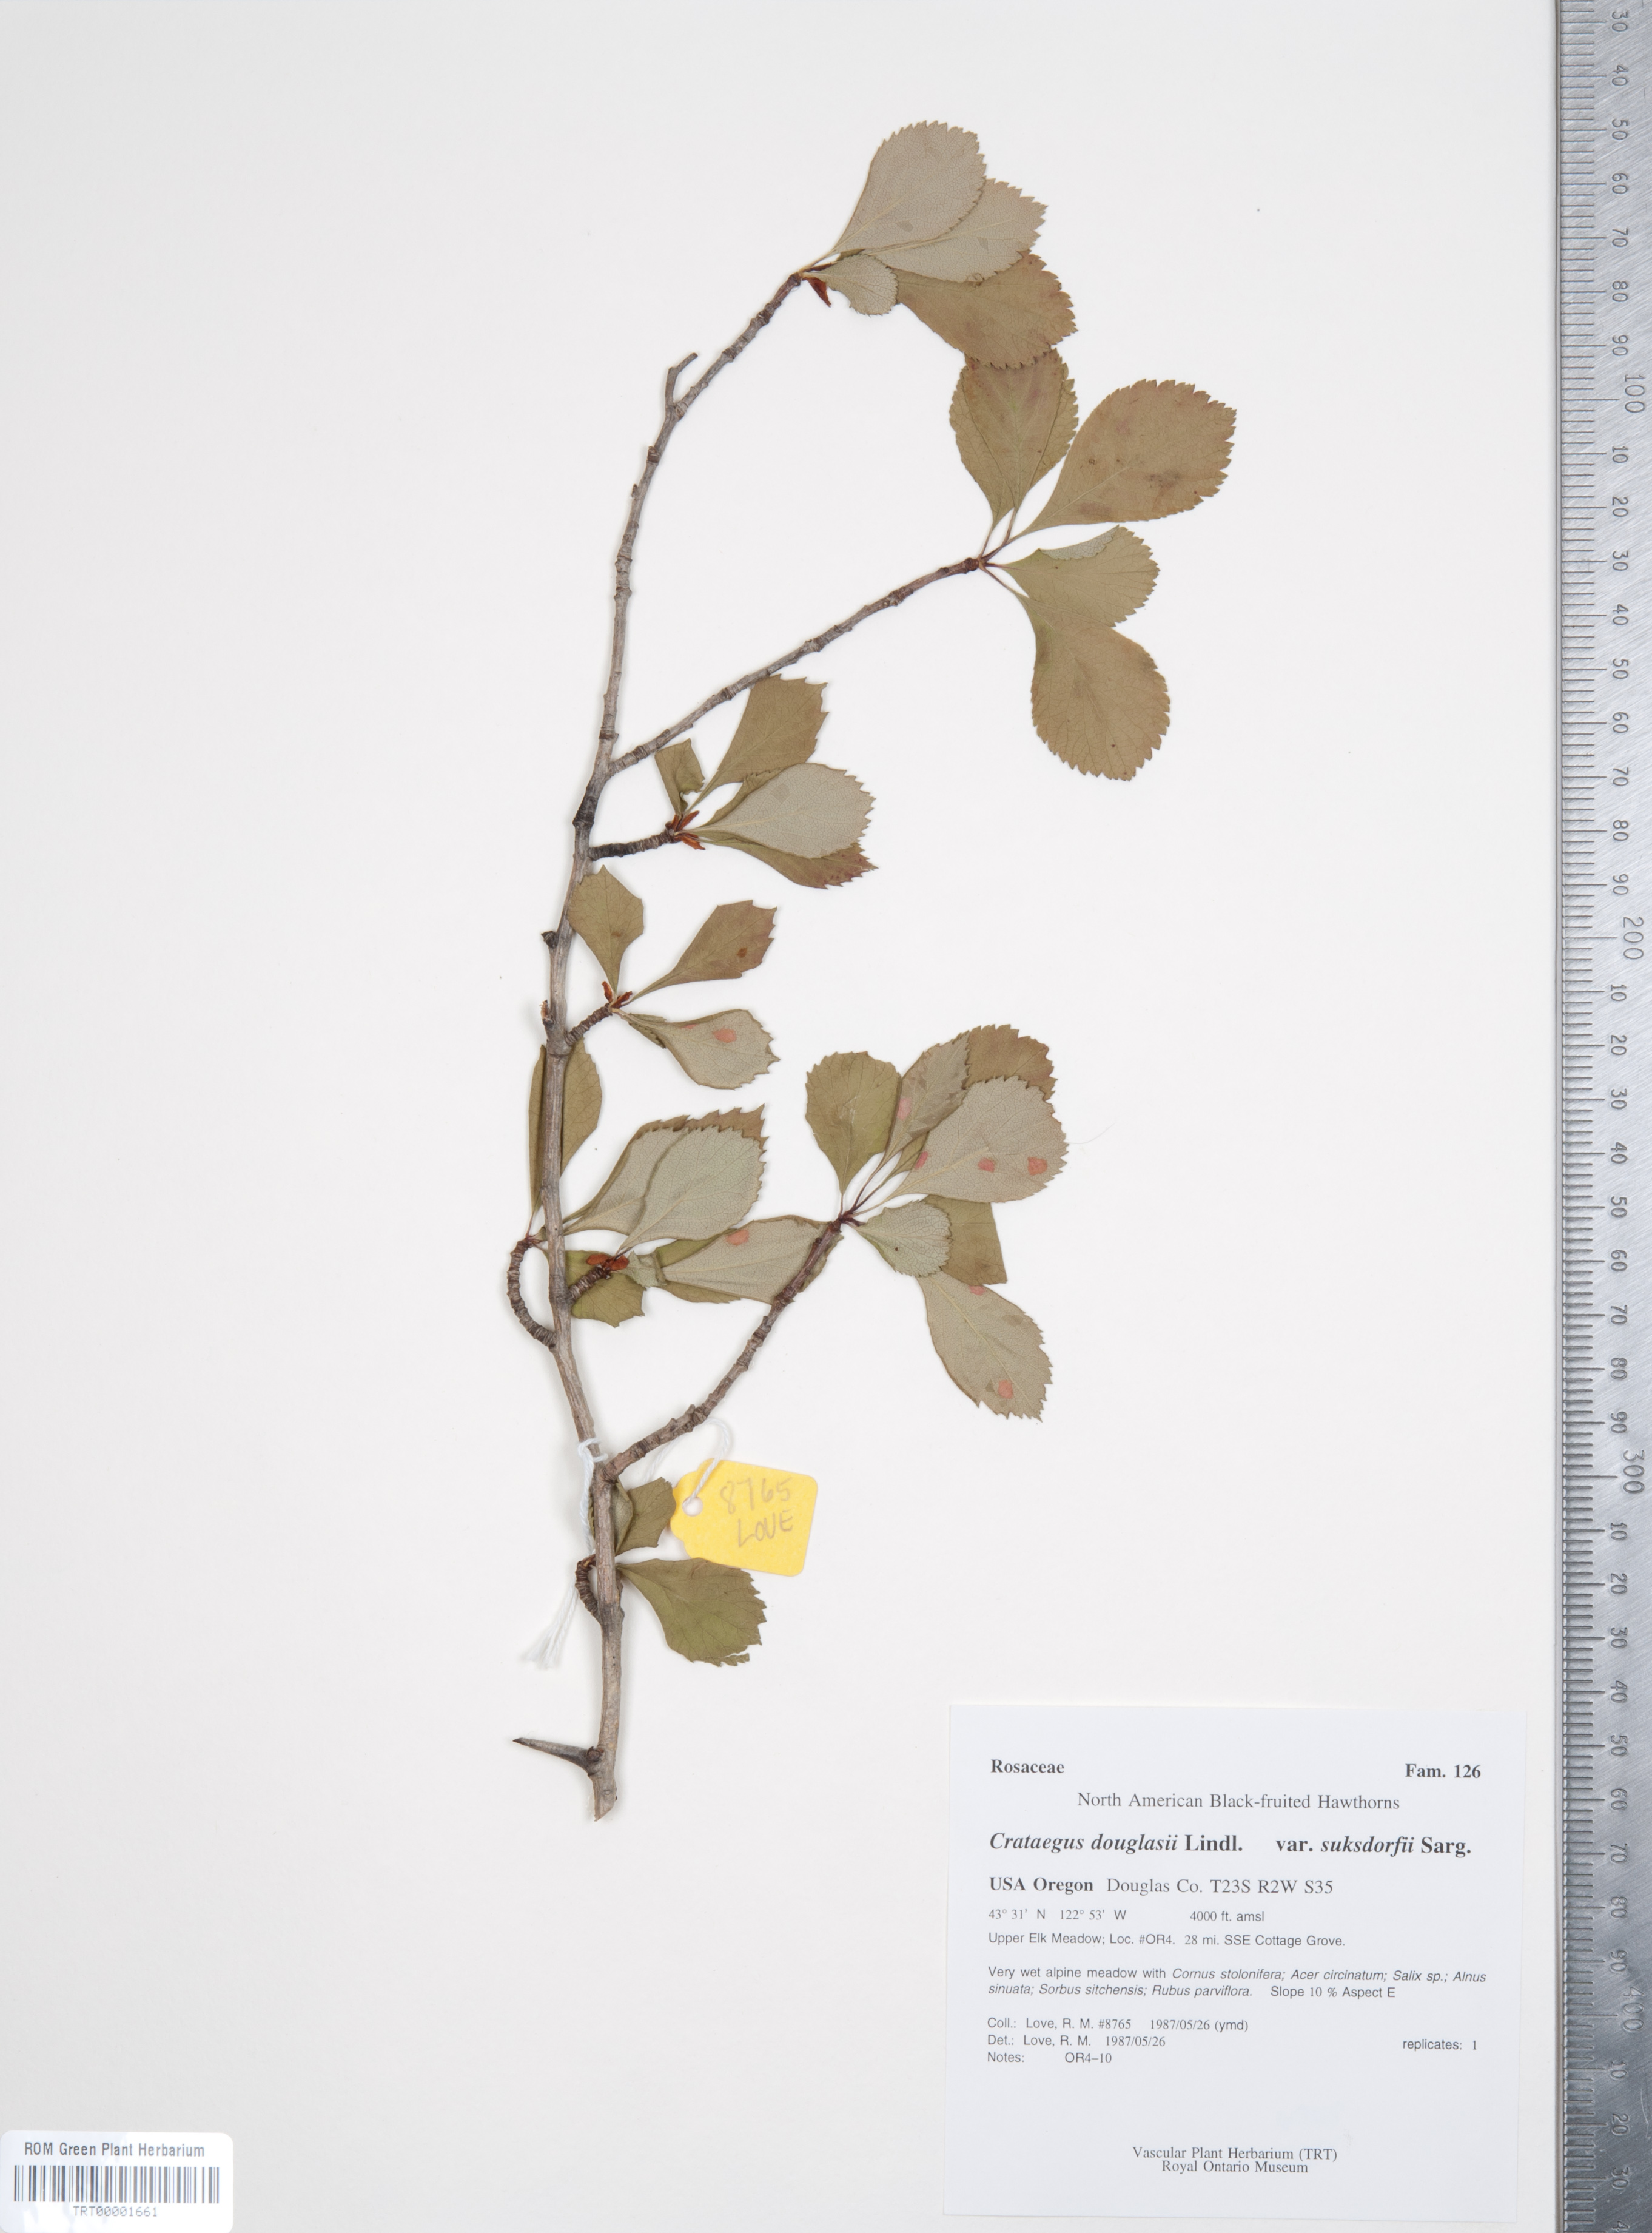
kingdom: Plantae
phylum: Tracheophyta
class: Magnoliopsida
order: Rosales
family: Rosaceae
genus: Crataegus
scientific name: Crataegus gaylussacia
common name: Huckleberry hawthorn
